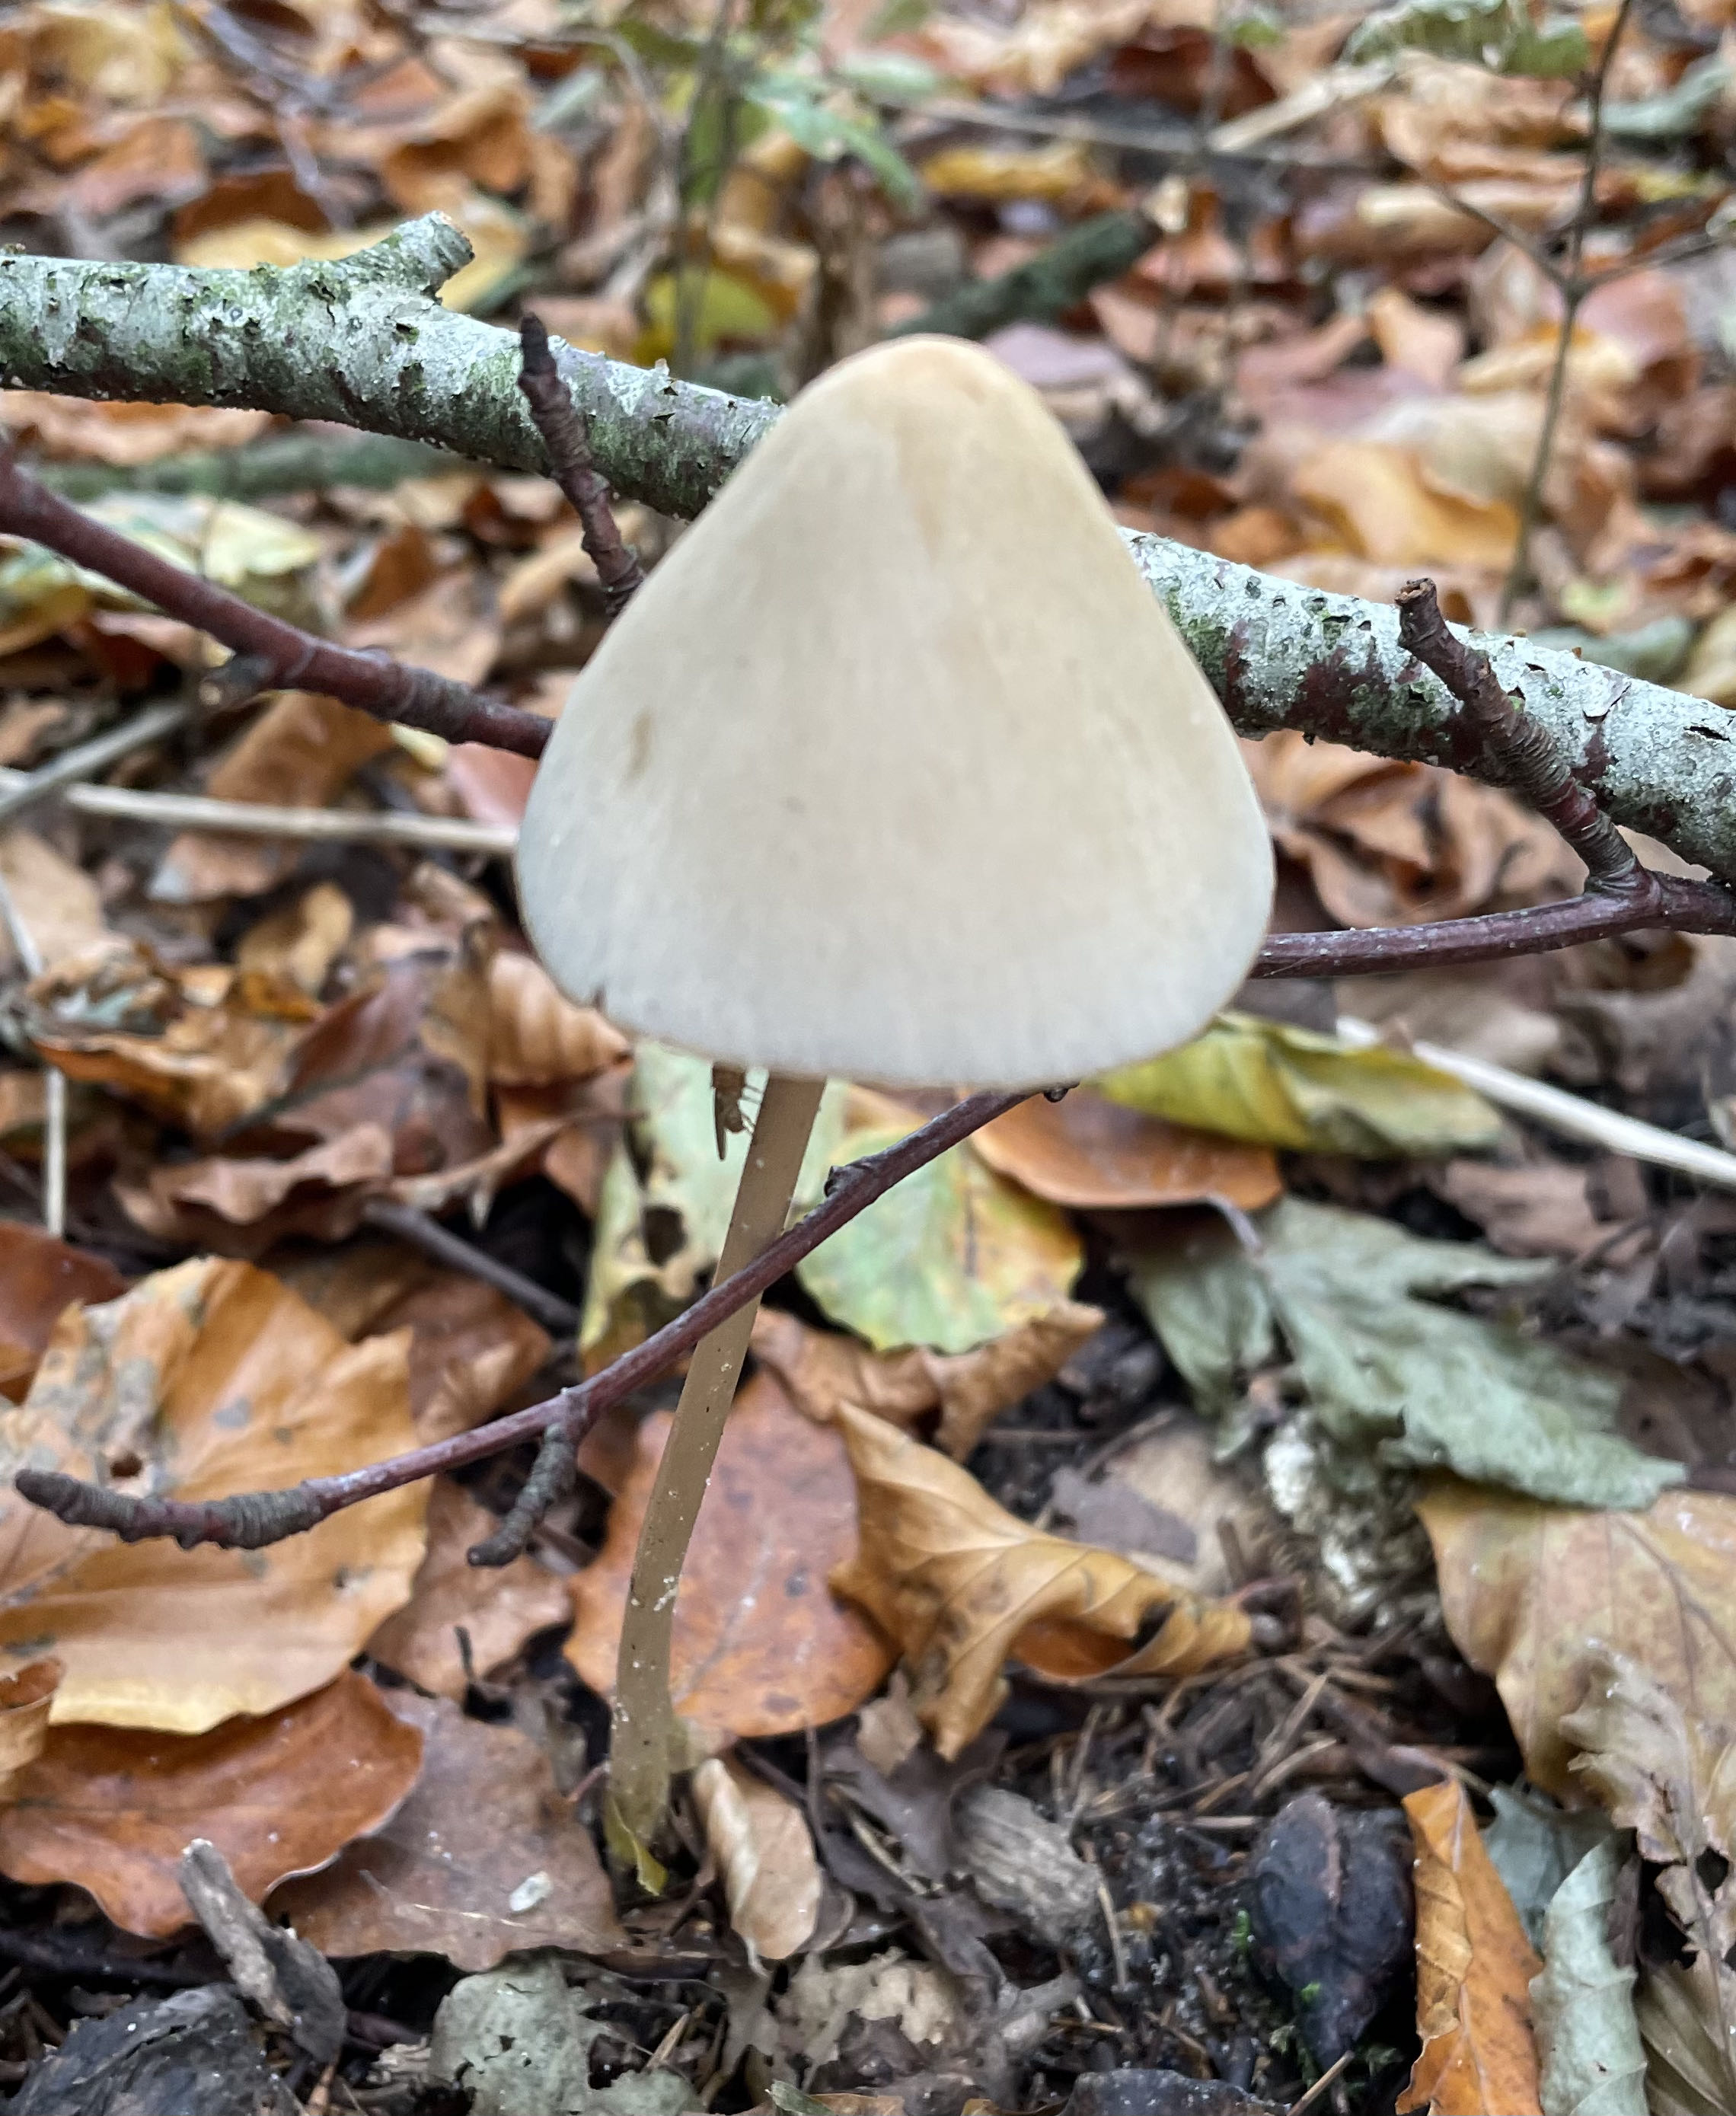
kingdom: Fungi
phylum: Basidiomycota
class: Agaricomycetes
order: Agaricales
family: Psathyrellaceae
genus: Parasola
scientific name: Parasola conopilea
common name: kegle-hjulhat
